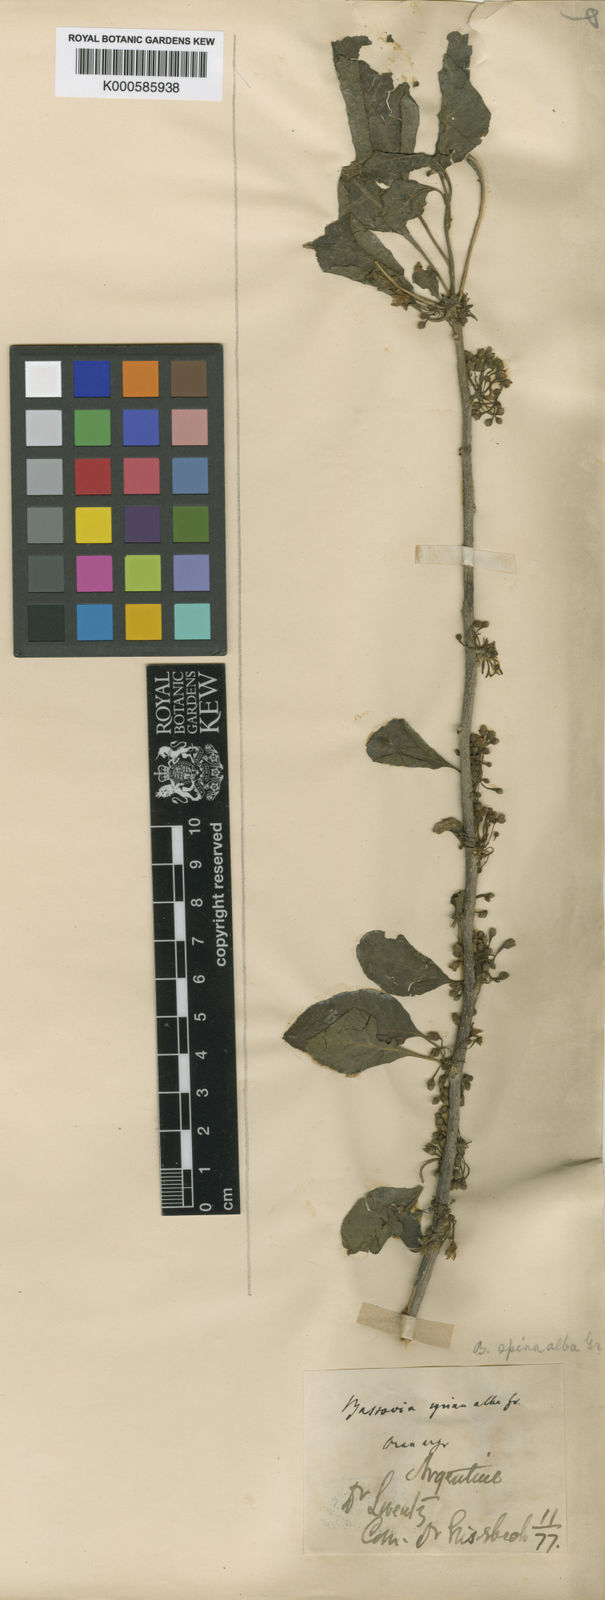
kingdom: Plantae
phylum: Tracheophyta
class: Magnoliopsida
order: Solanales
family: Solanaceae
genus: Vassobia
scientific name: Vassobia breviflora
